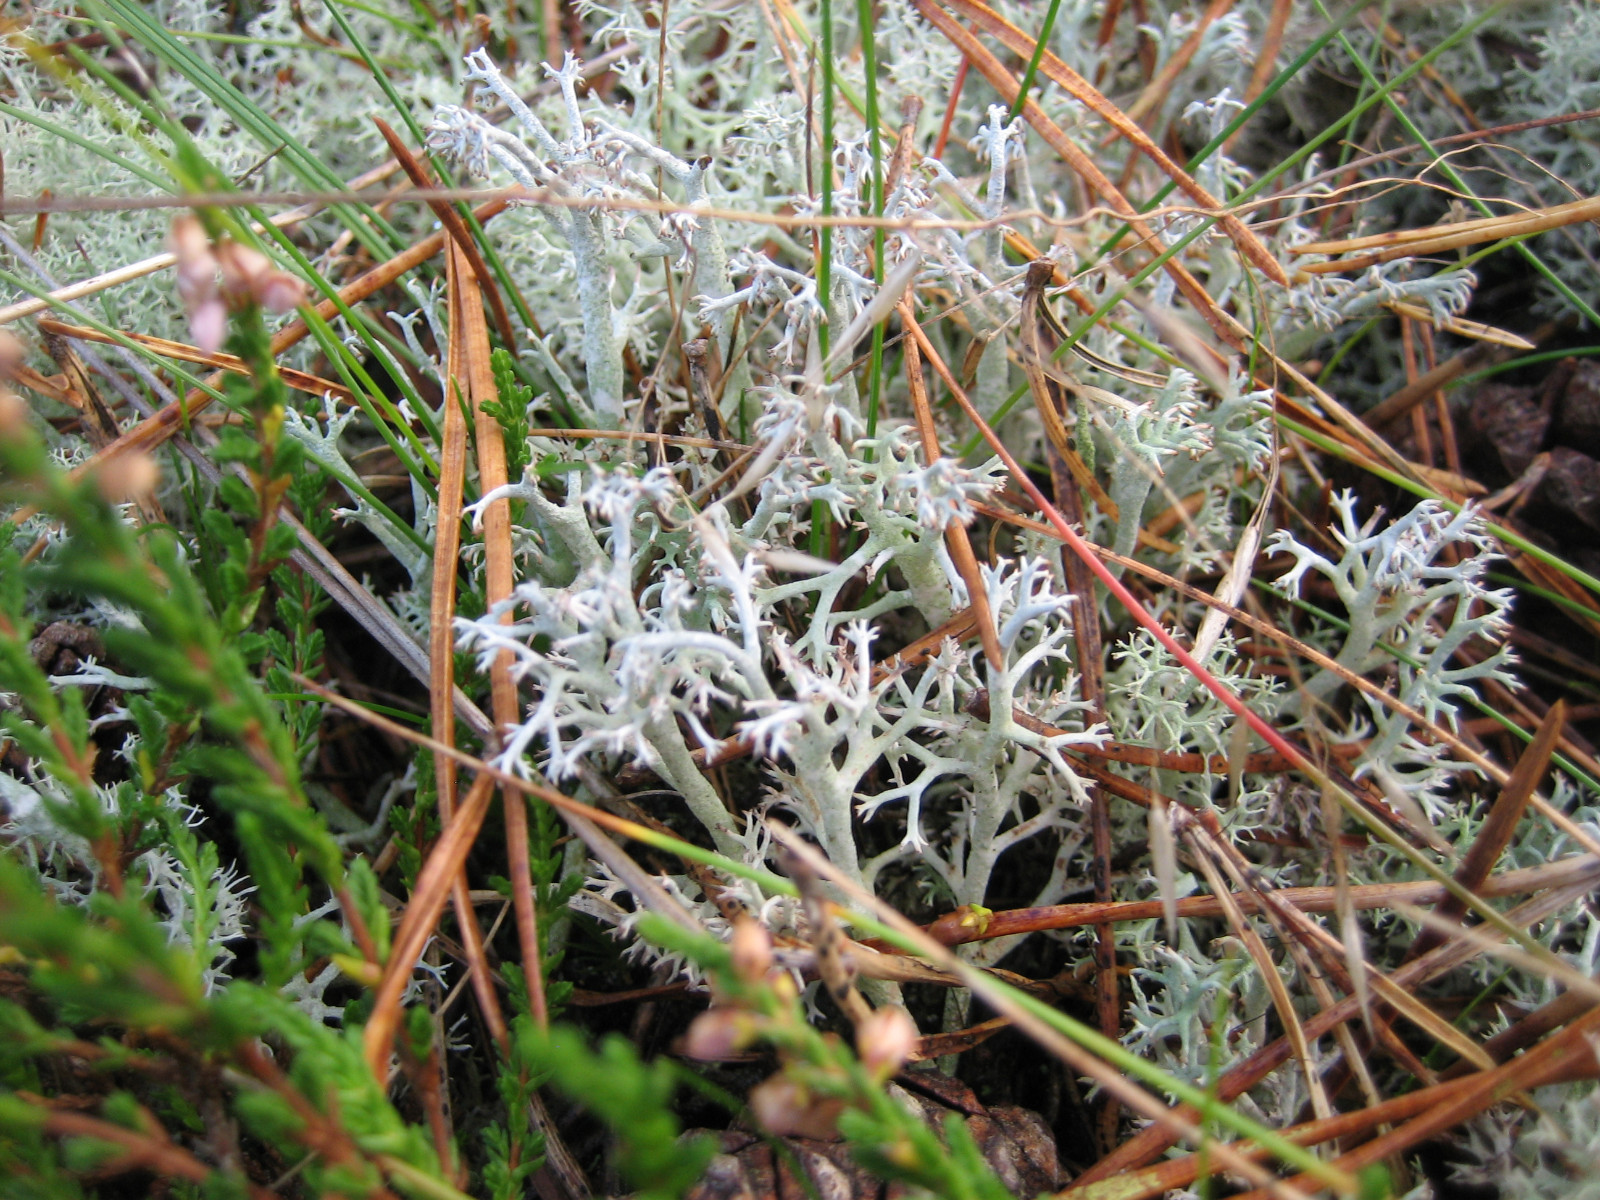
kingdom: Fungi
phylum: Ascomycota
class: Lecanoromycetes
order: Lecanorales
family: Cladoniaceae
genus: Cladonia
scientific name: Cladonia rangiferina
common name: askegrå rensdyrlav
